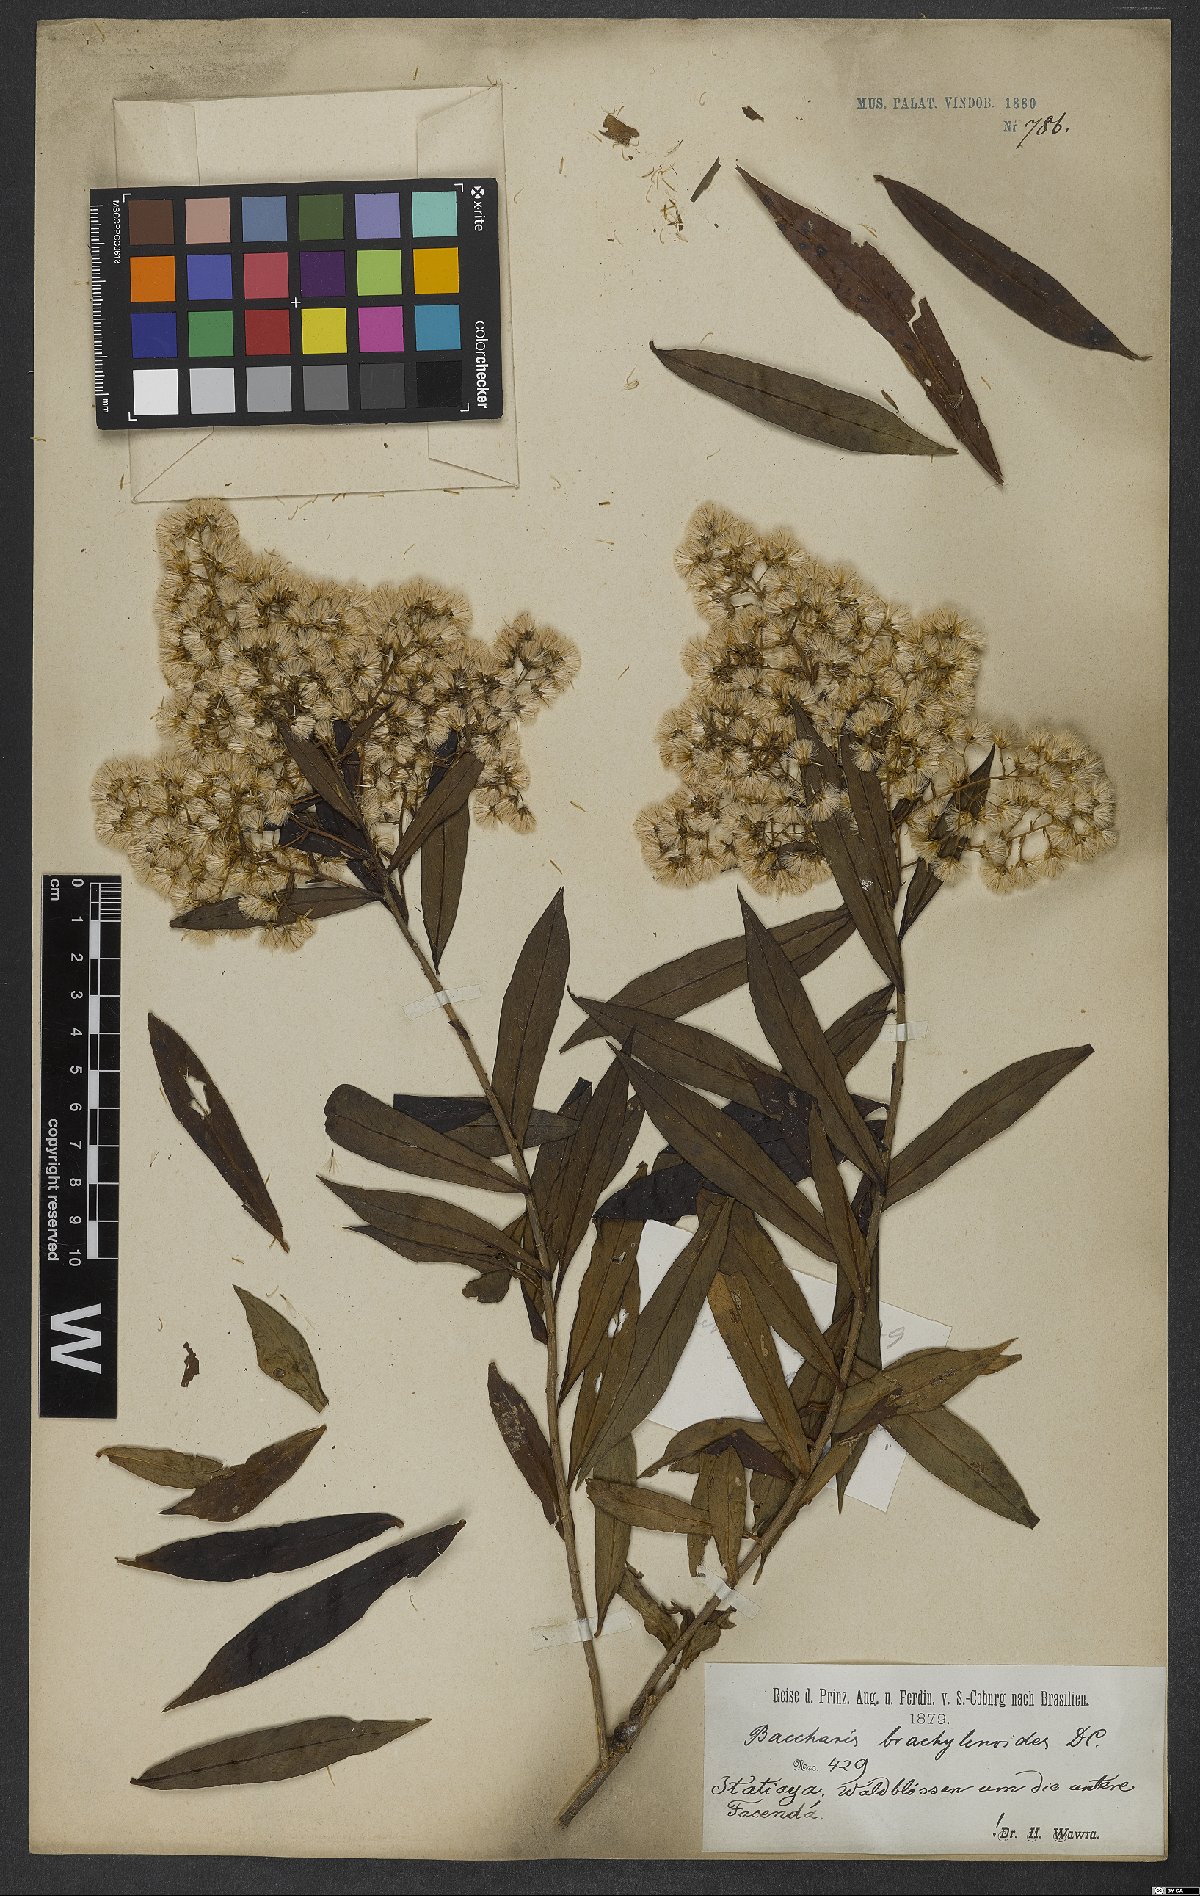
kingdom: Plantae
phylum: Tracheophyta
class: Magnoliopsida
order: Asterales
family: Asteraceae
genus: Baccharis
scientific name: Baccharis oblongifolia
